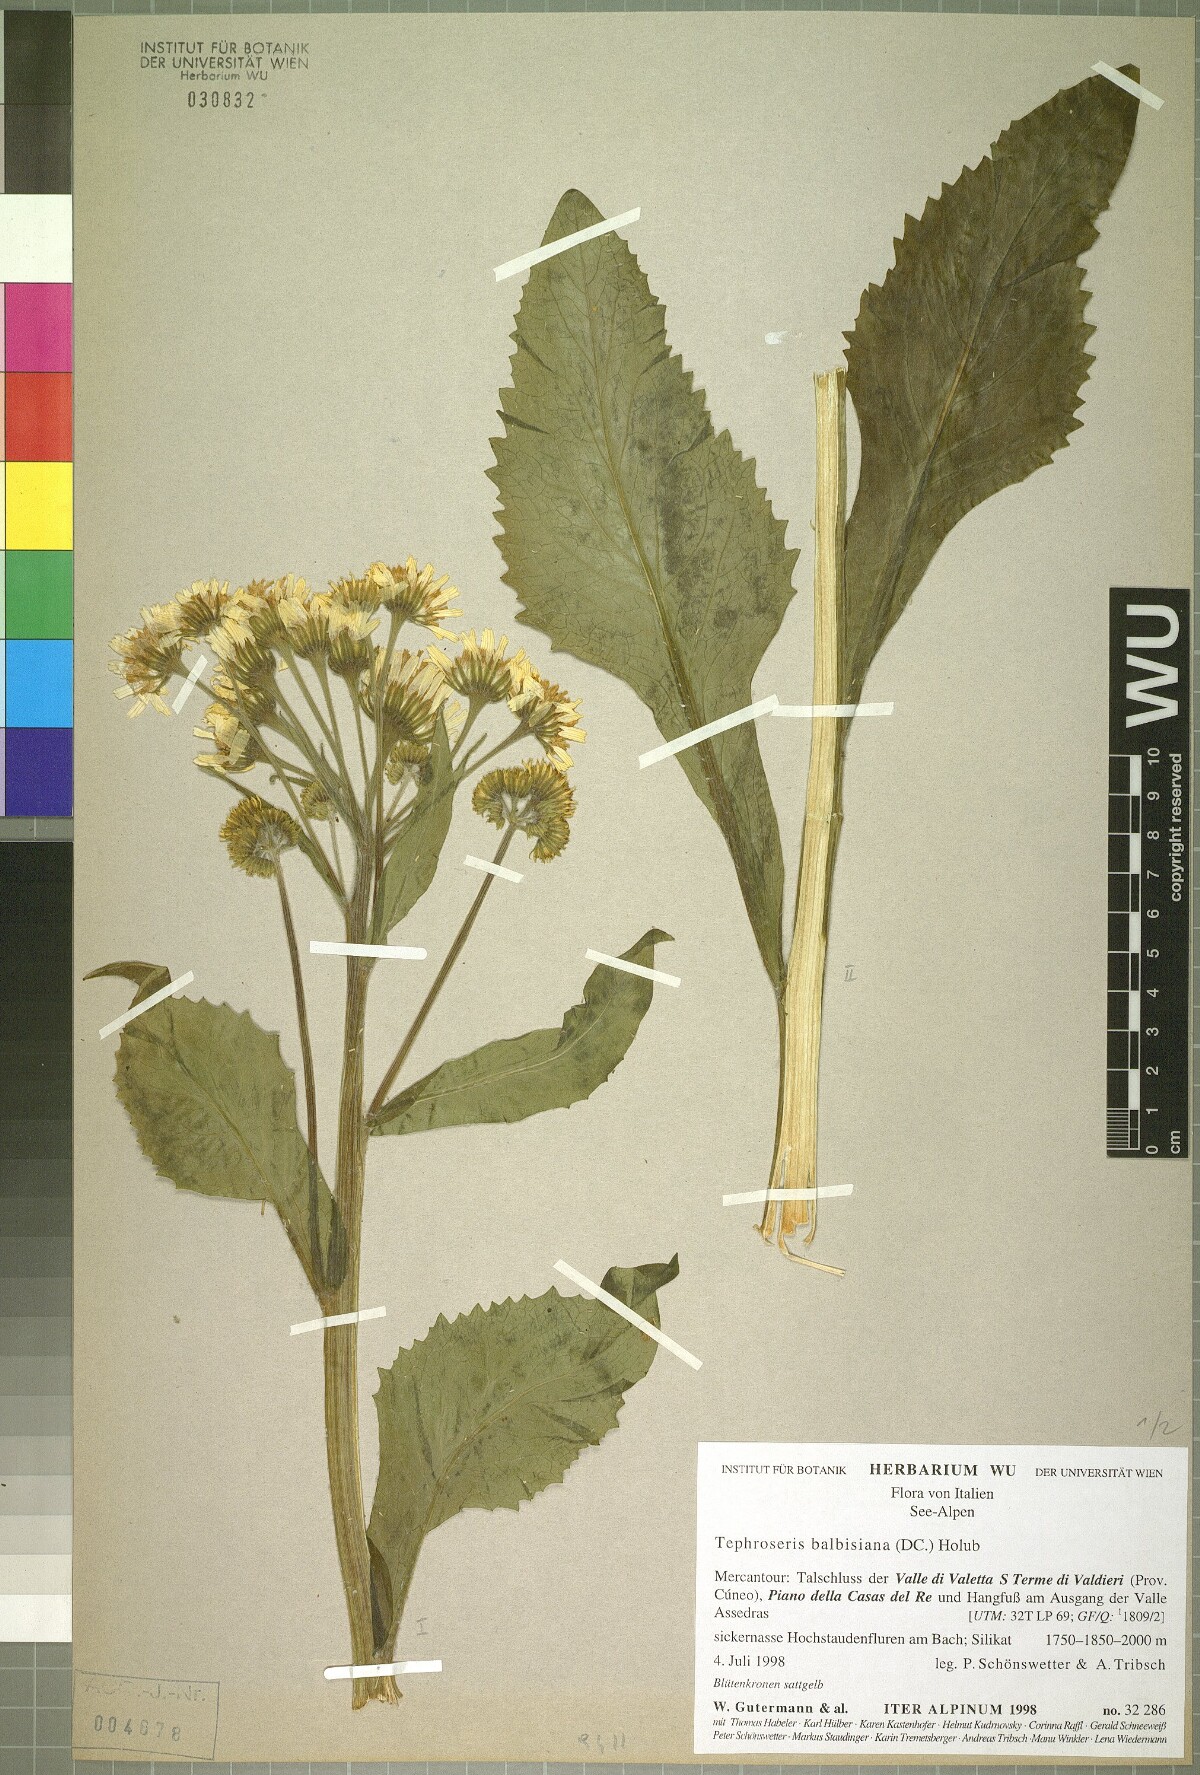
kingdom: Plantae
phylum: Tracheophyta
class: Magnoliopsida
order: Asterales
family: Asteraceae
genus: Tephroseris
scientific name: Tephroseris balbisiana
